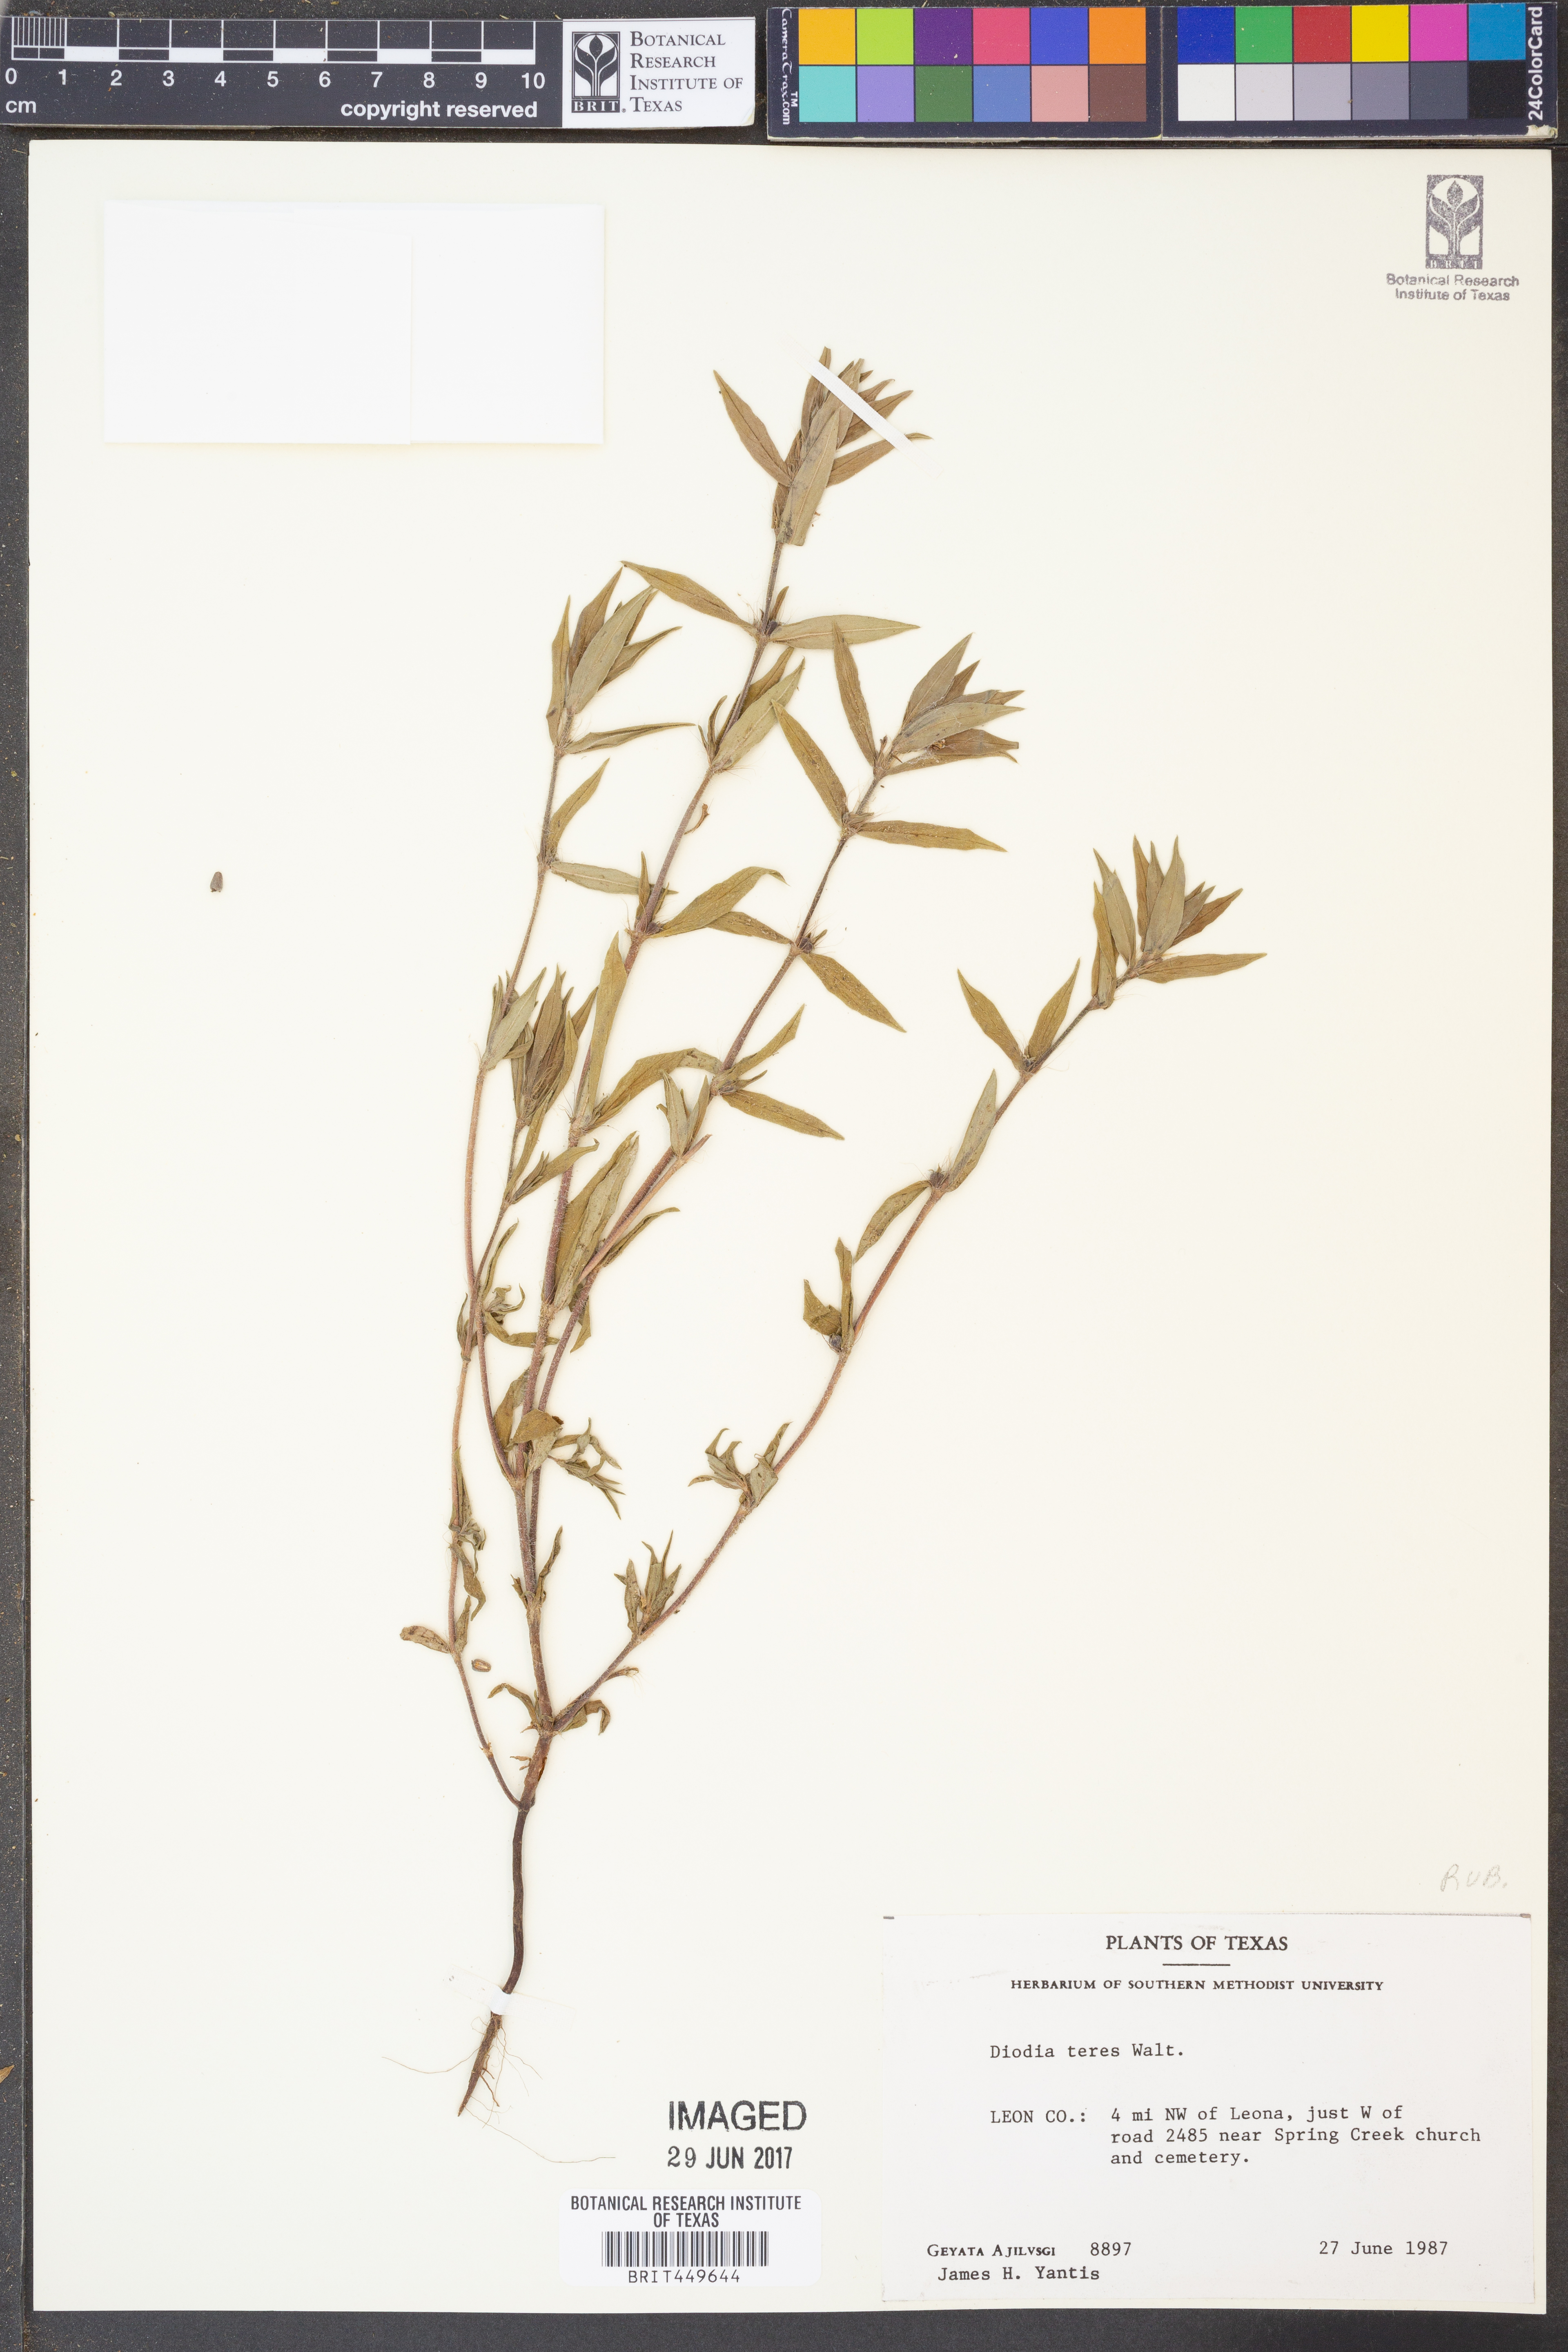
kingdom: Plantae
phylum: Tracheophyta
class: Magnoliopsida
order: Gentianales
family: Rubiaceae
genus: Hexasepalum
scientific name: Hexasepalum teres
